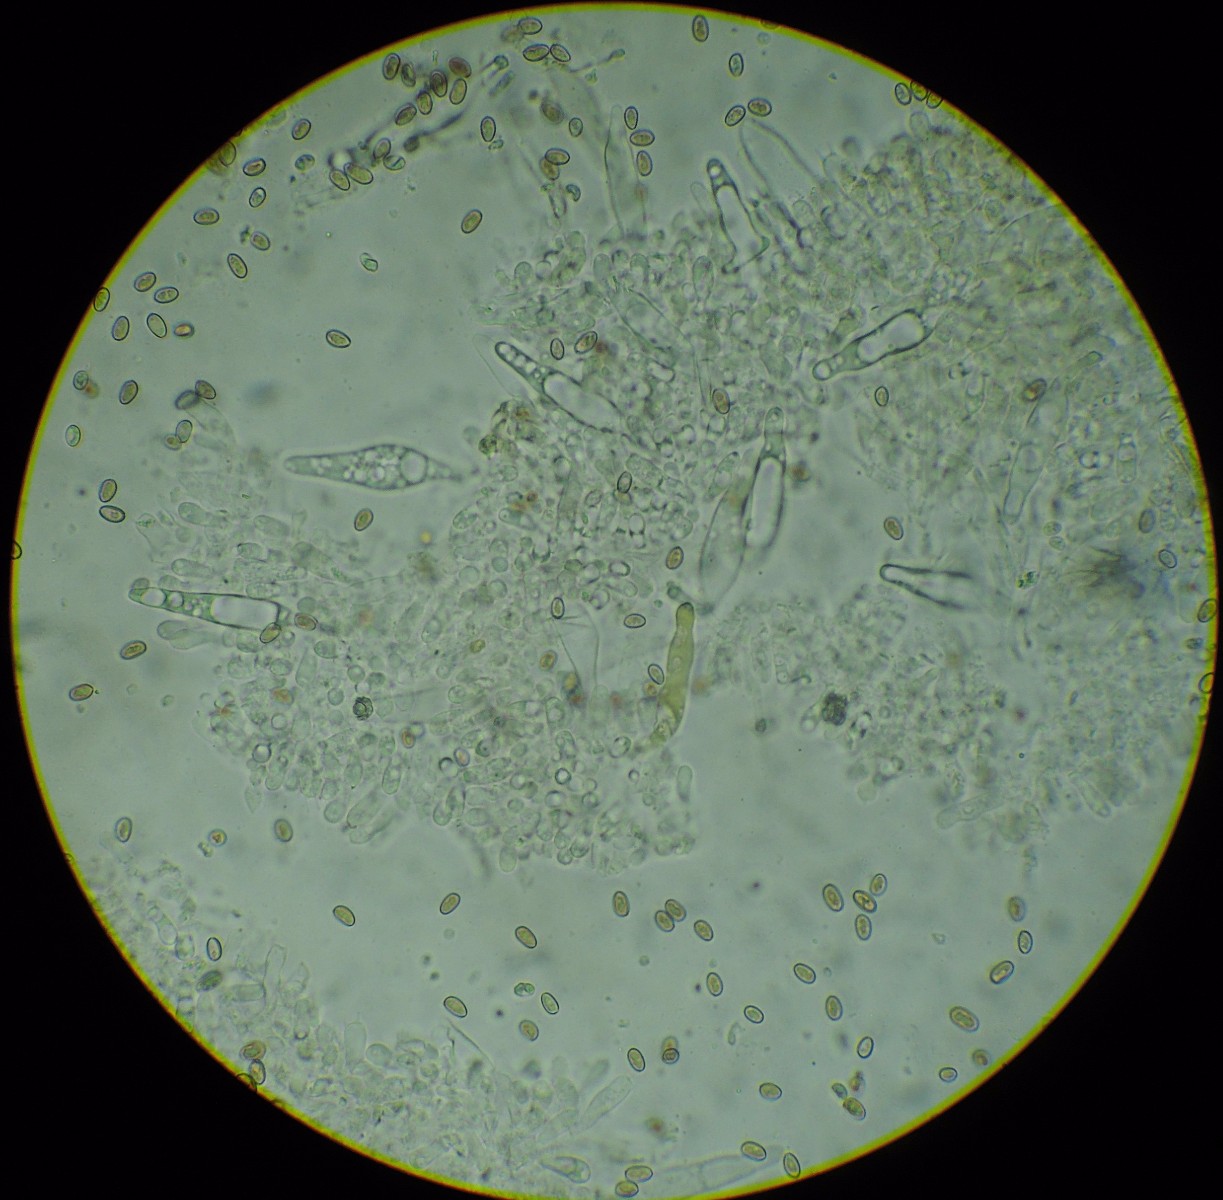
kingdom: Fungi
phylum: Basidiomycota
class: Agaricomycetes
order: Agaricales
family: Strophariaceae
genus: Pholiota
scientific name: Pholiota mixta
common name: nåle-skælhat
